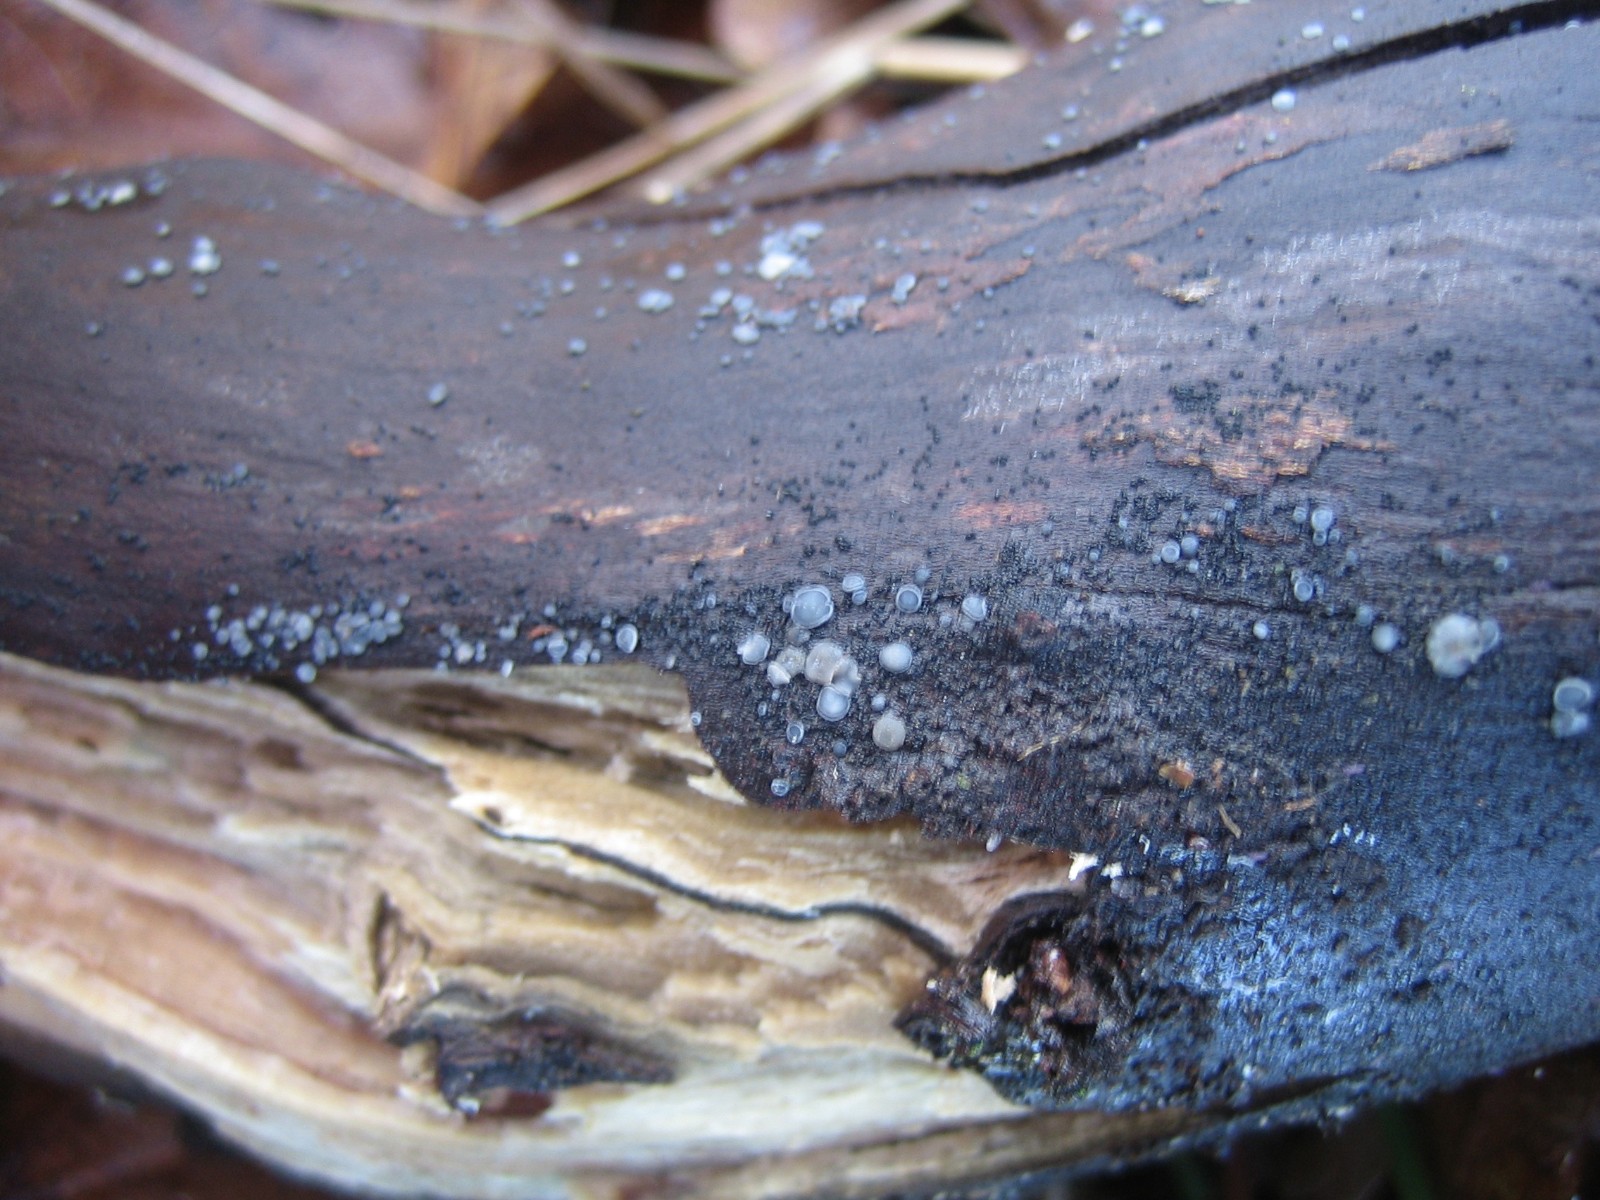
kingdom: Fungi
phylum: Ascomycota
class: Leotiomycetes
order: Helotiales
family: Mollisiaceae
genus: Mollisia
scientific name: Mollisia cinerea
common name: almindelig gråskive
